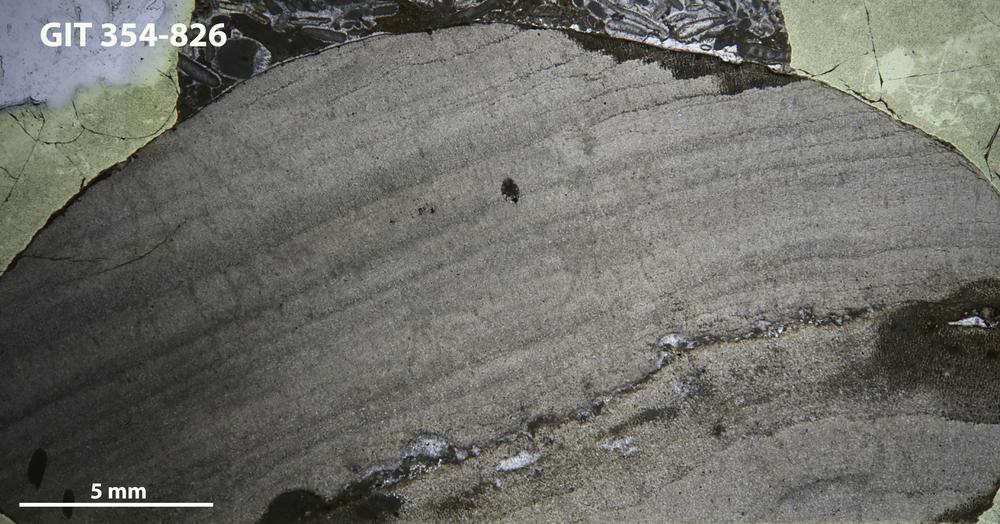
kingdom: Animalia
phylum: Porifera
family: Densastromatidae
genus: Densastroma
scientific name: Densastroma
